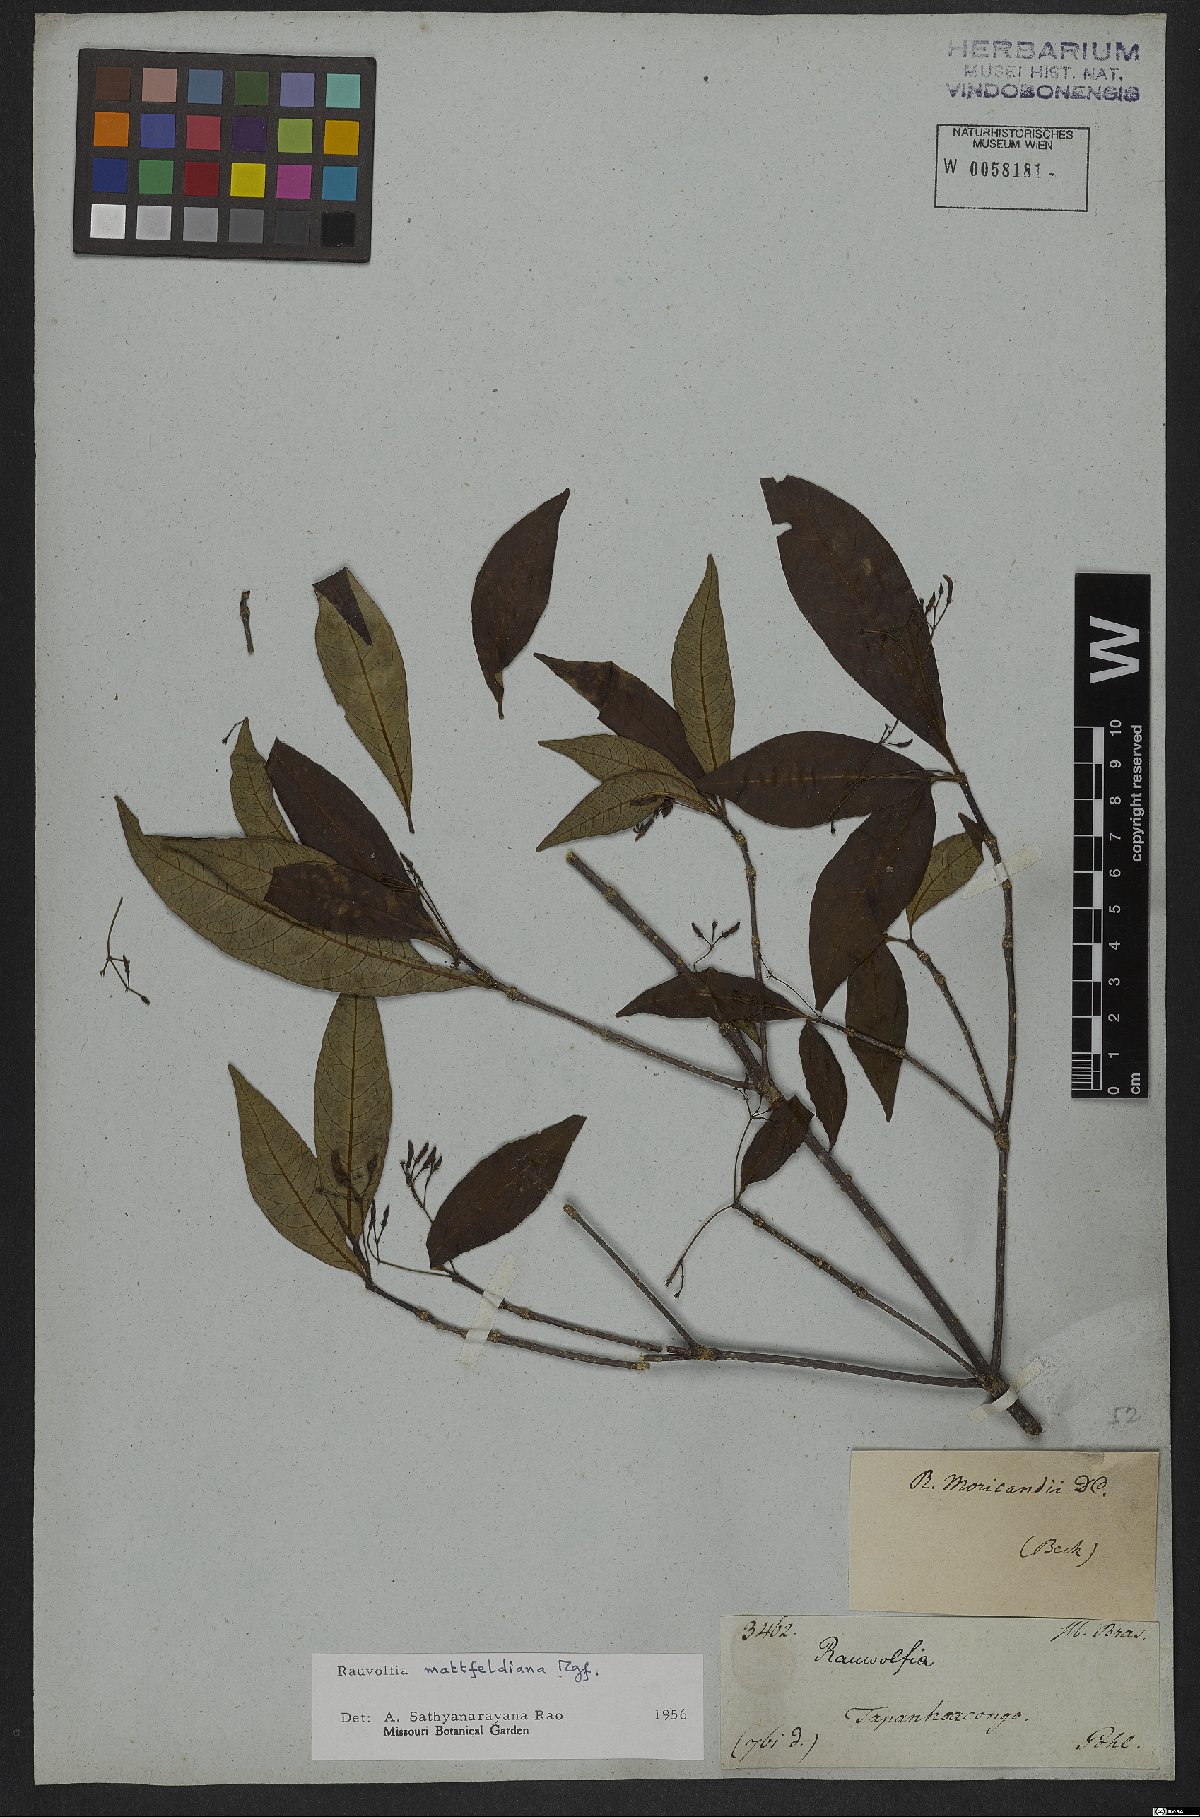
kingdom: Plantae
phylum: Tracheophyta
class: Magnoliopsida
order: Gentianales
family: Apocynaceae
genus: Rauvolfia
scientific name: Rauvolfia mattfeldiana
